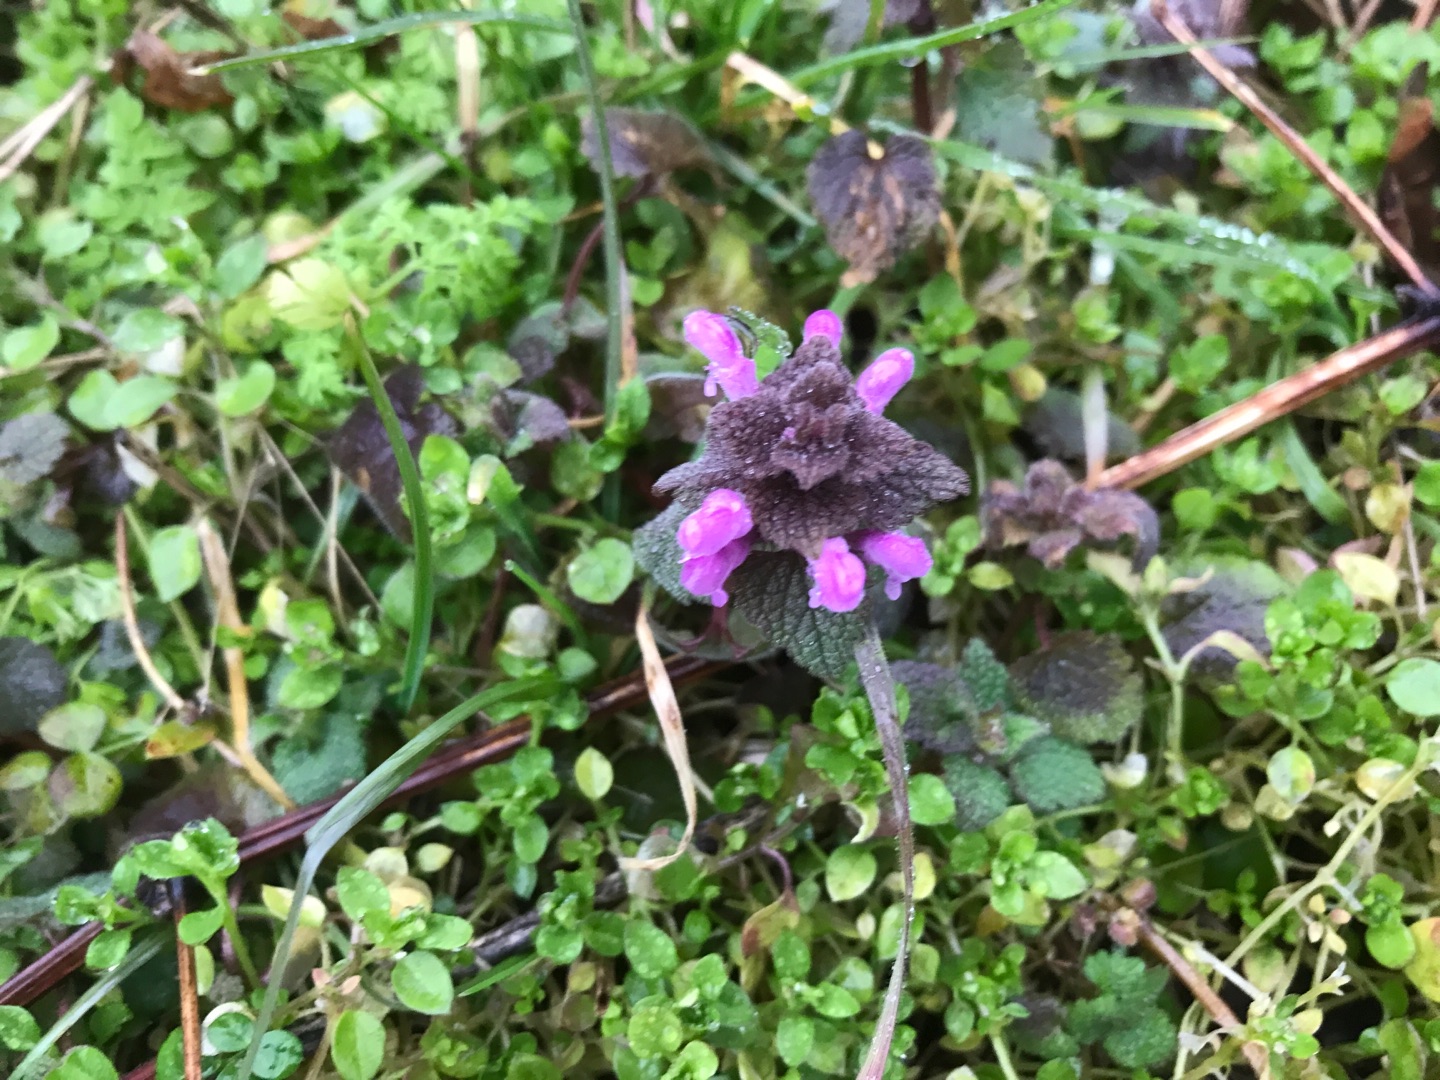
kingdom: Plantae
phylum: Tracheophyta
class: Magnoliopsida
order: Lamiales
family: Lamiaceae
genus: Lamium
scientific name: Lamium purpureum
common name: Rød tvetand
